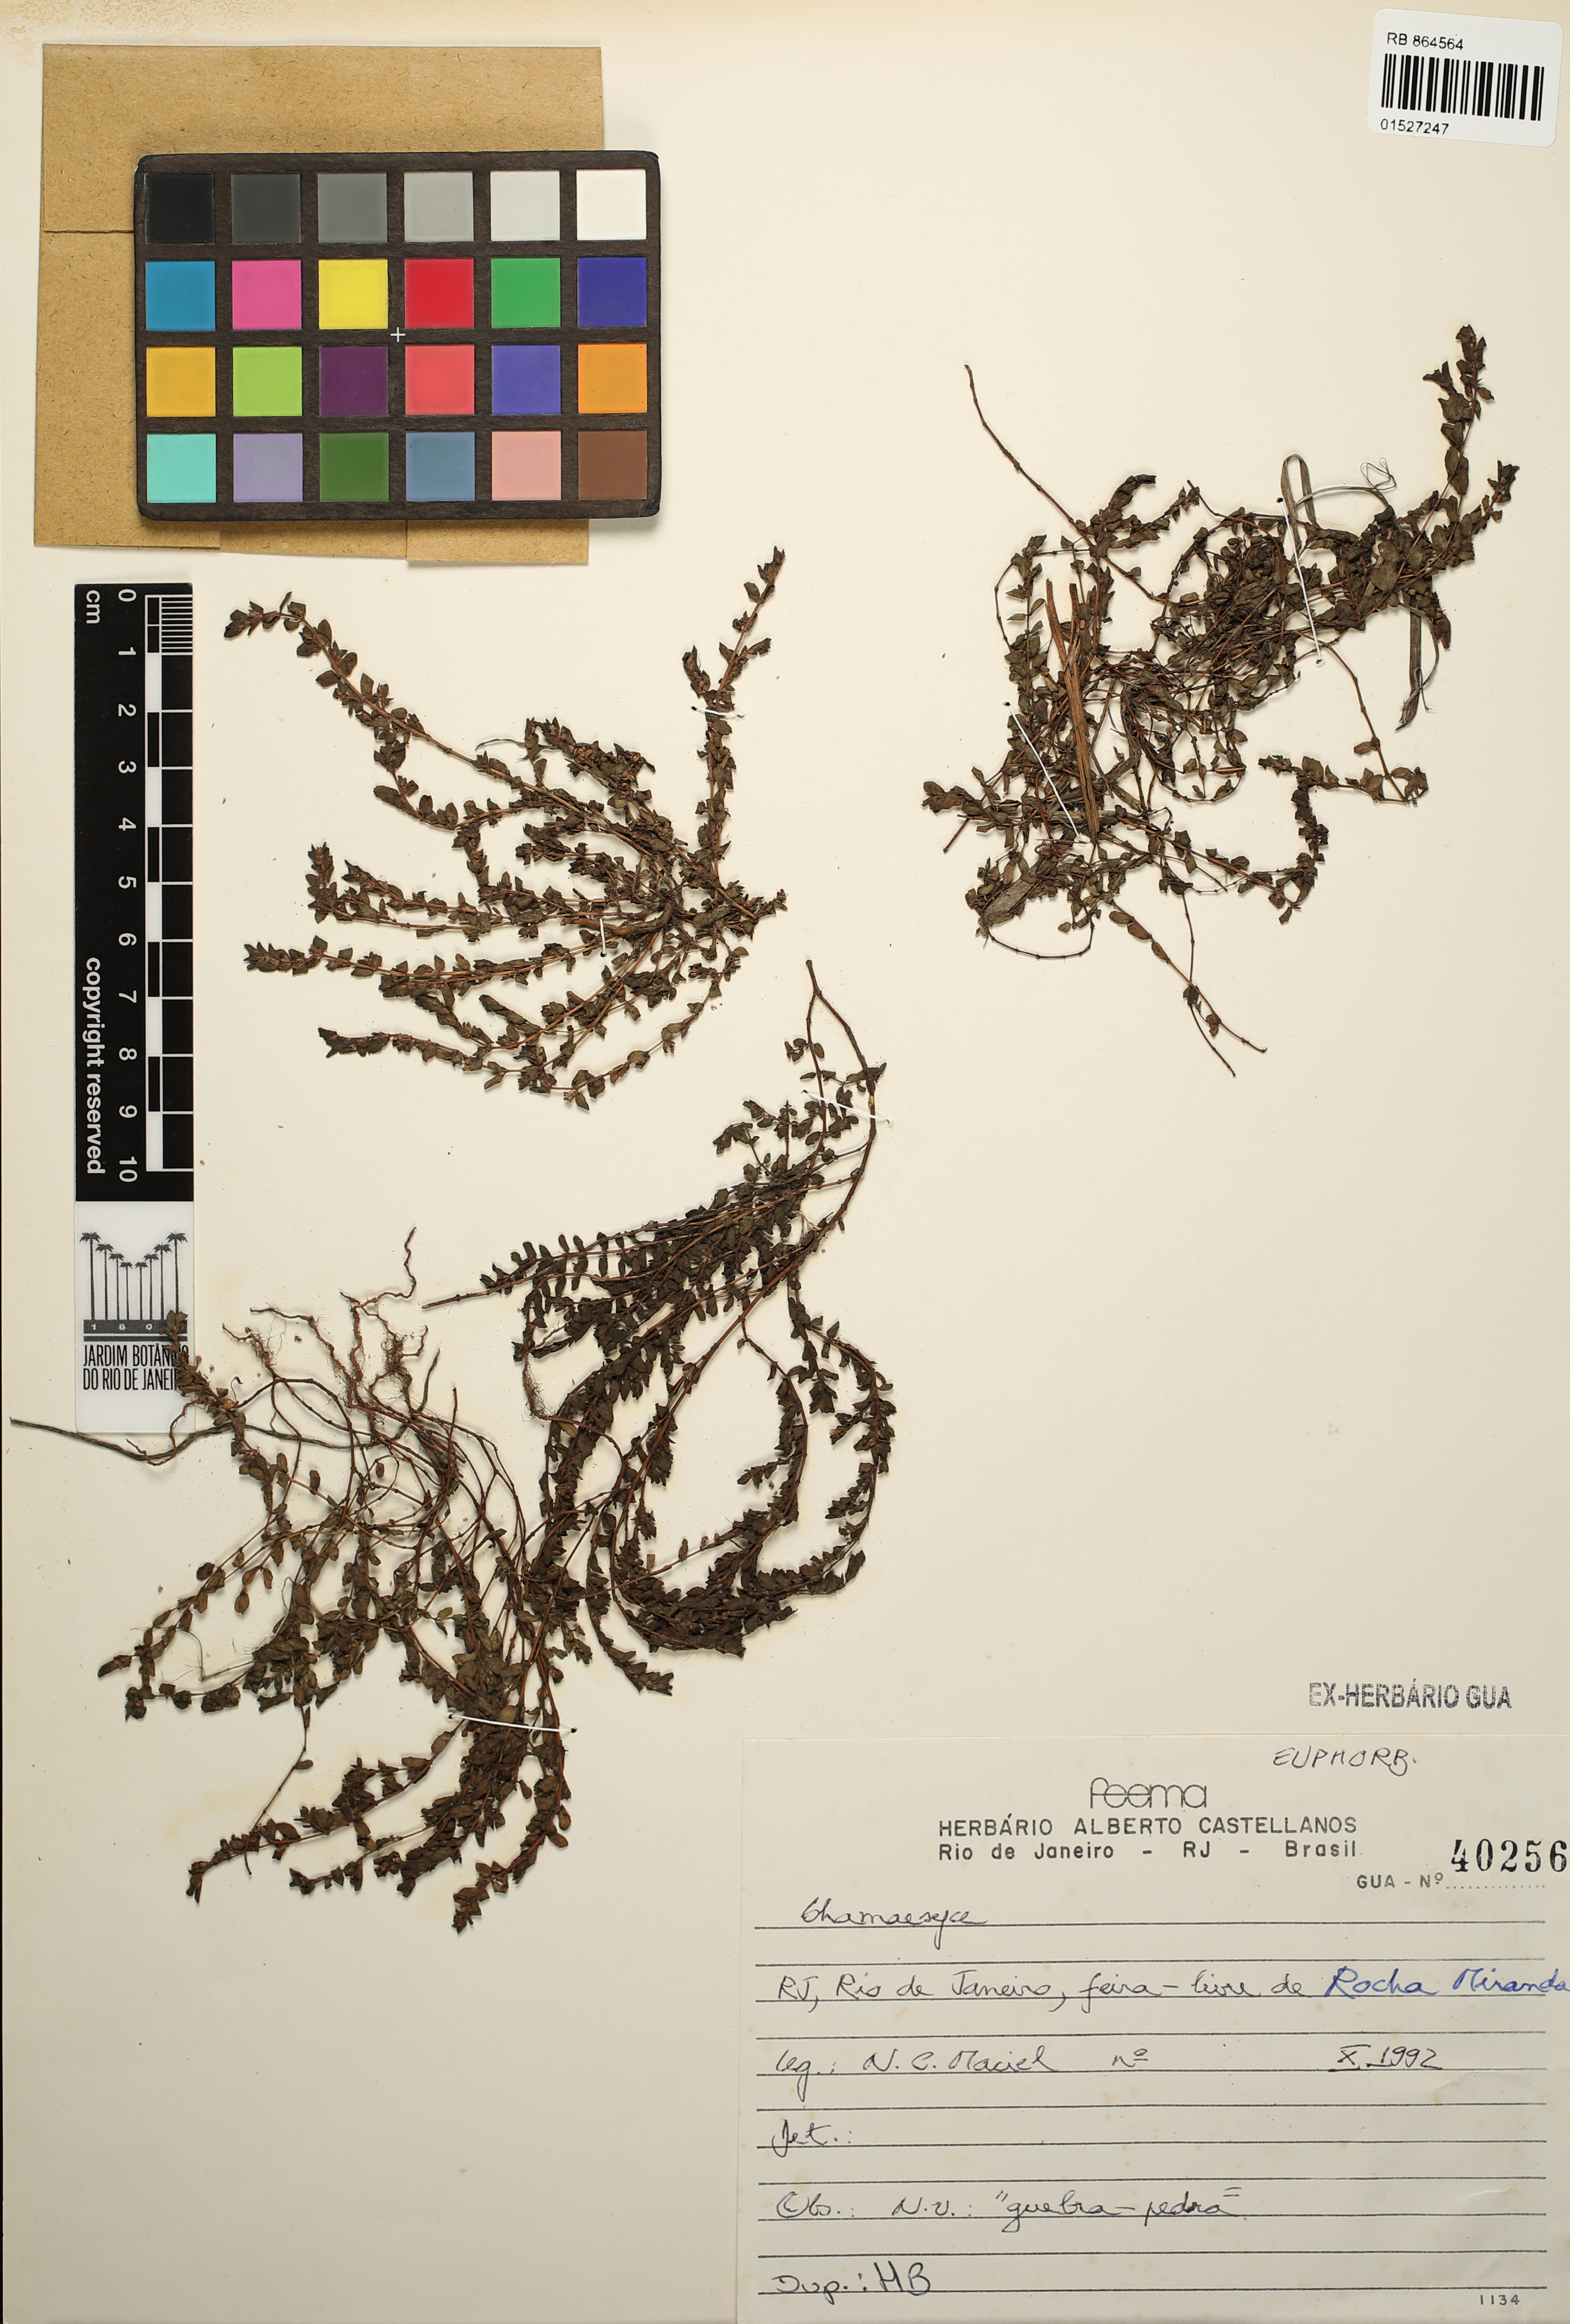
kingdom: Plantae
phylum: Tracheophyta
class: Magnoliopsida
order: Malpighiales
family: Euphorbiaceae
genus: Chamaesyce
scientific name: Chamaesyce
